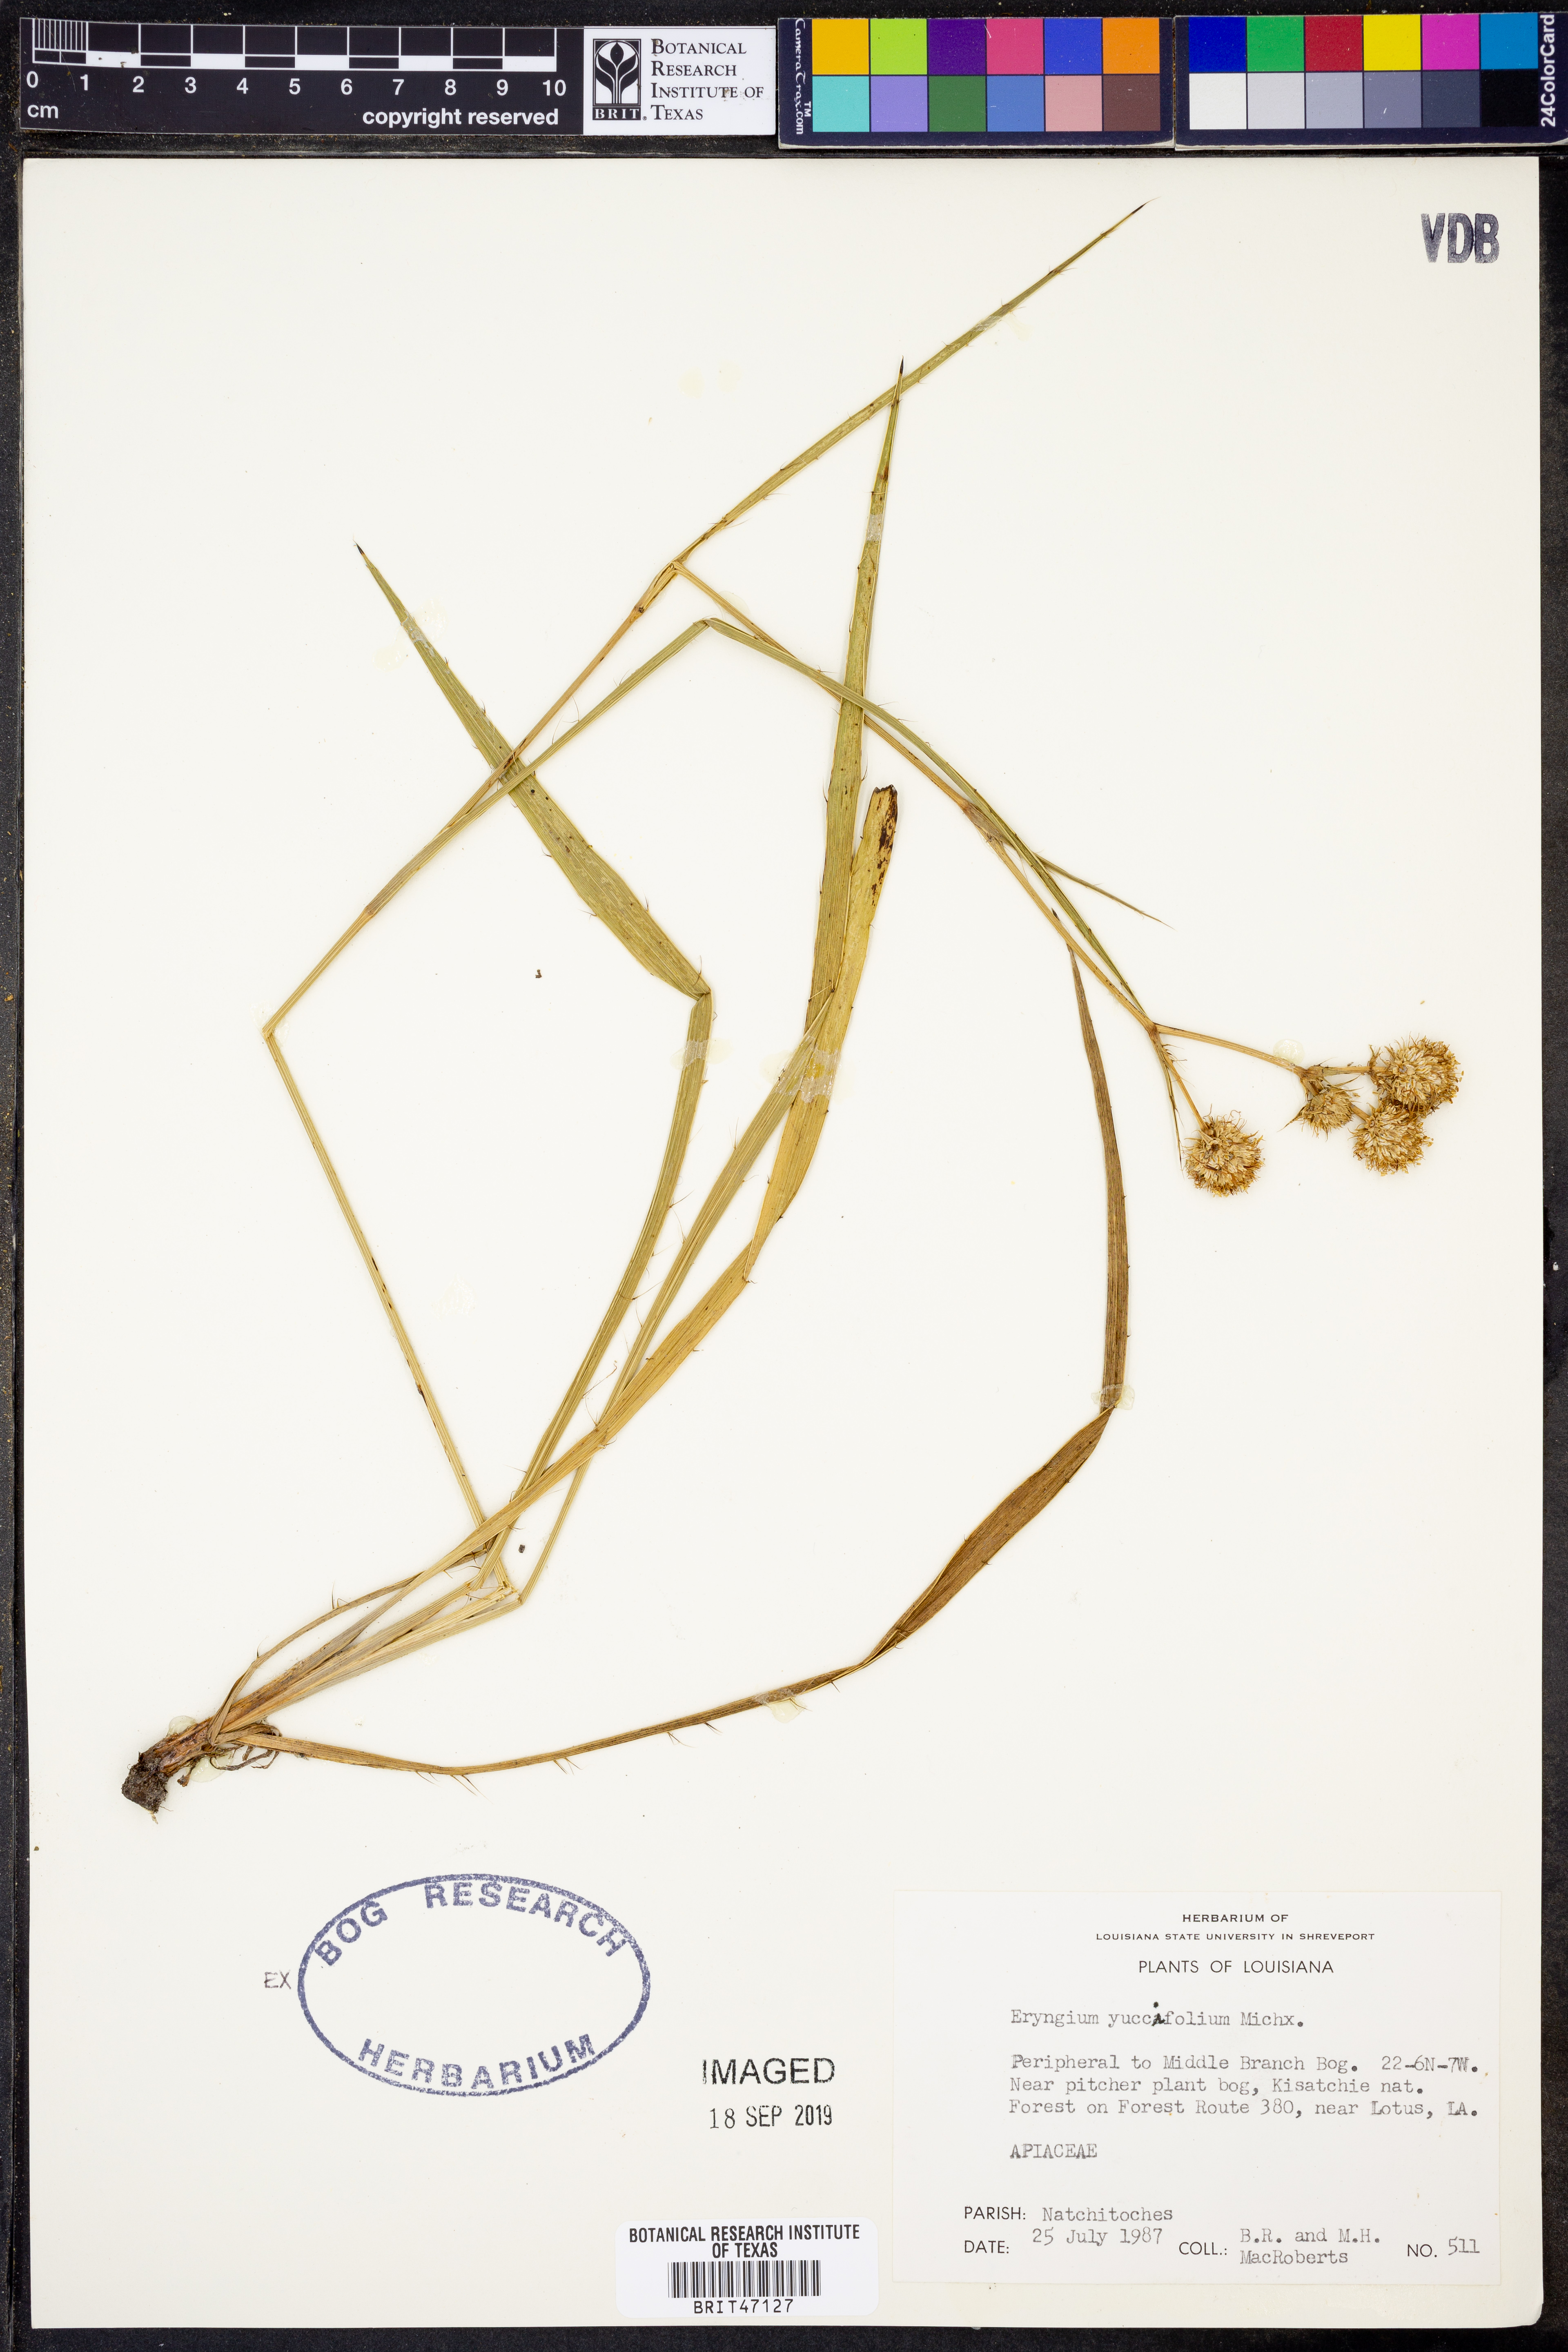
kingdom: Plantae
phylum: Tracheophyta
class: Magnoliopsida
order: Apiales
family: Apiaceae
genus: Eryngium
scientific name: Eryngium yuccifolium
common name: Button eryngo
